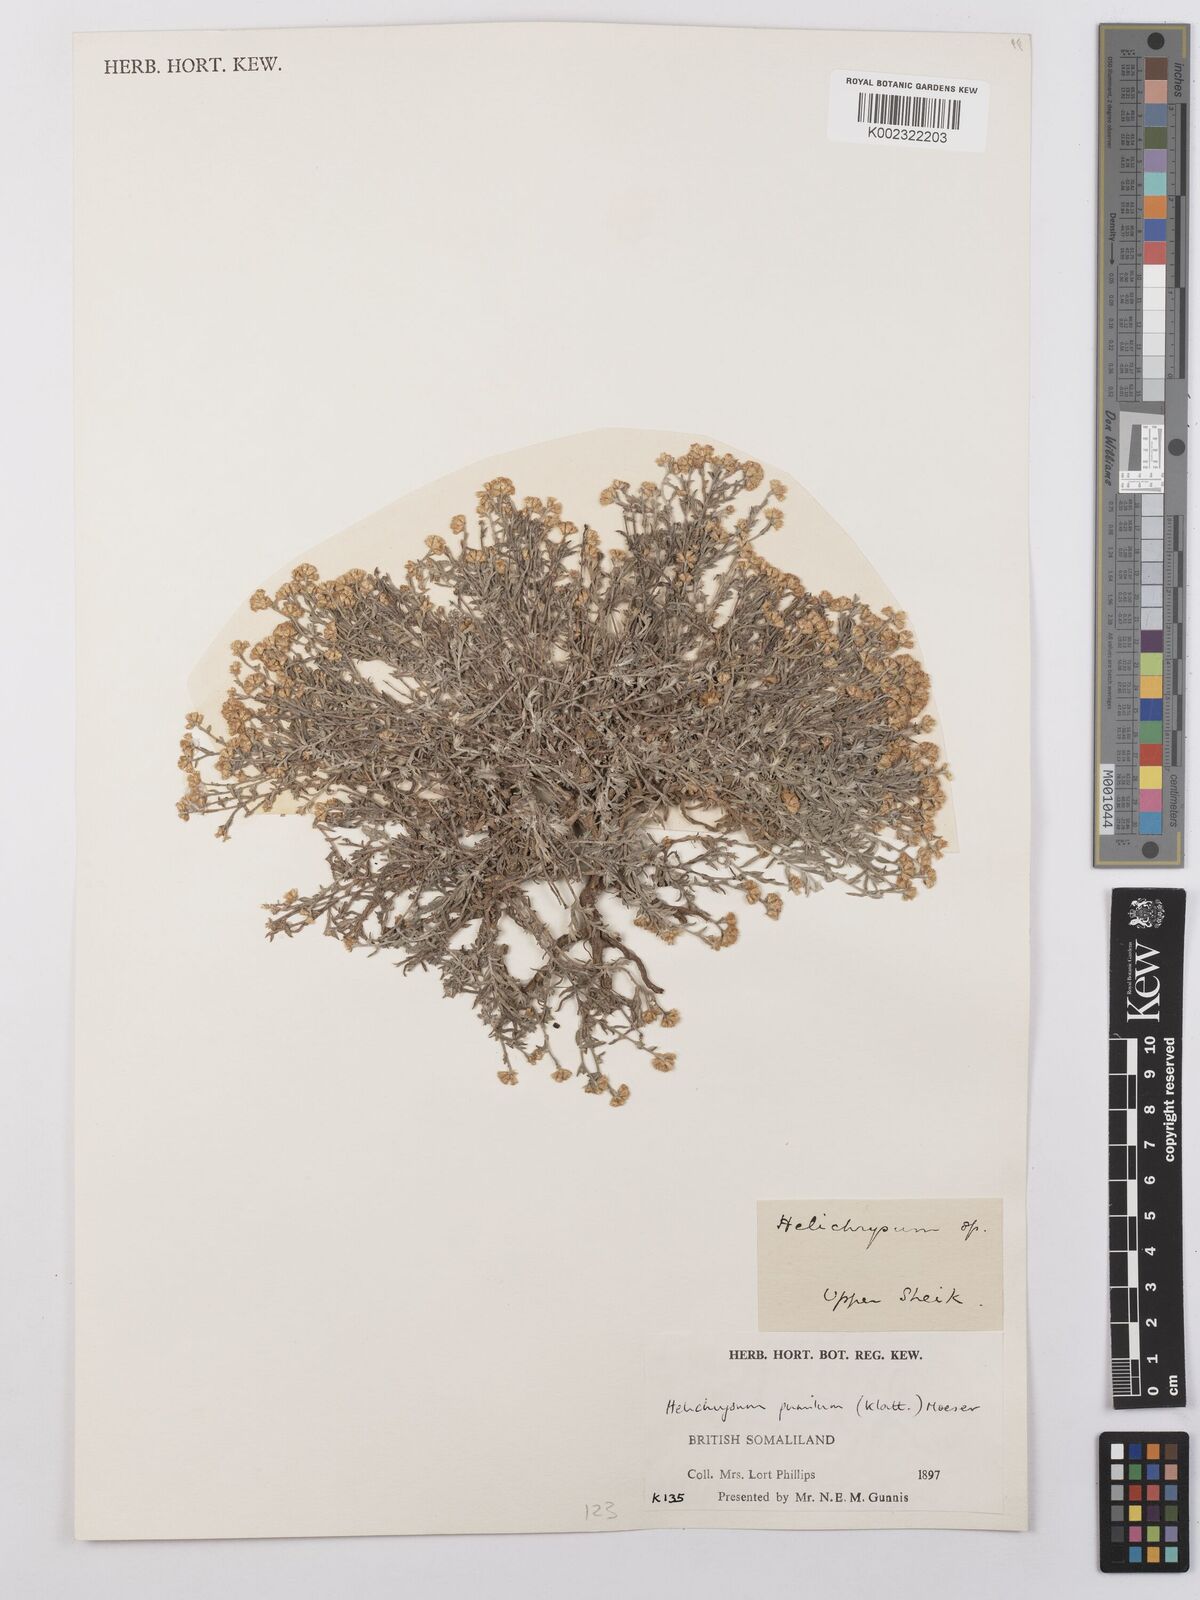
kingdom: Plantae
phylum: Tracheophyta
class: Magnoliopsida
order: Asterales
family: Asteraceae
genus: Helichrysum
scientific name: Helichrysum somalense
